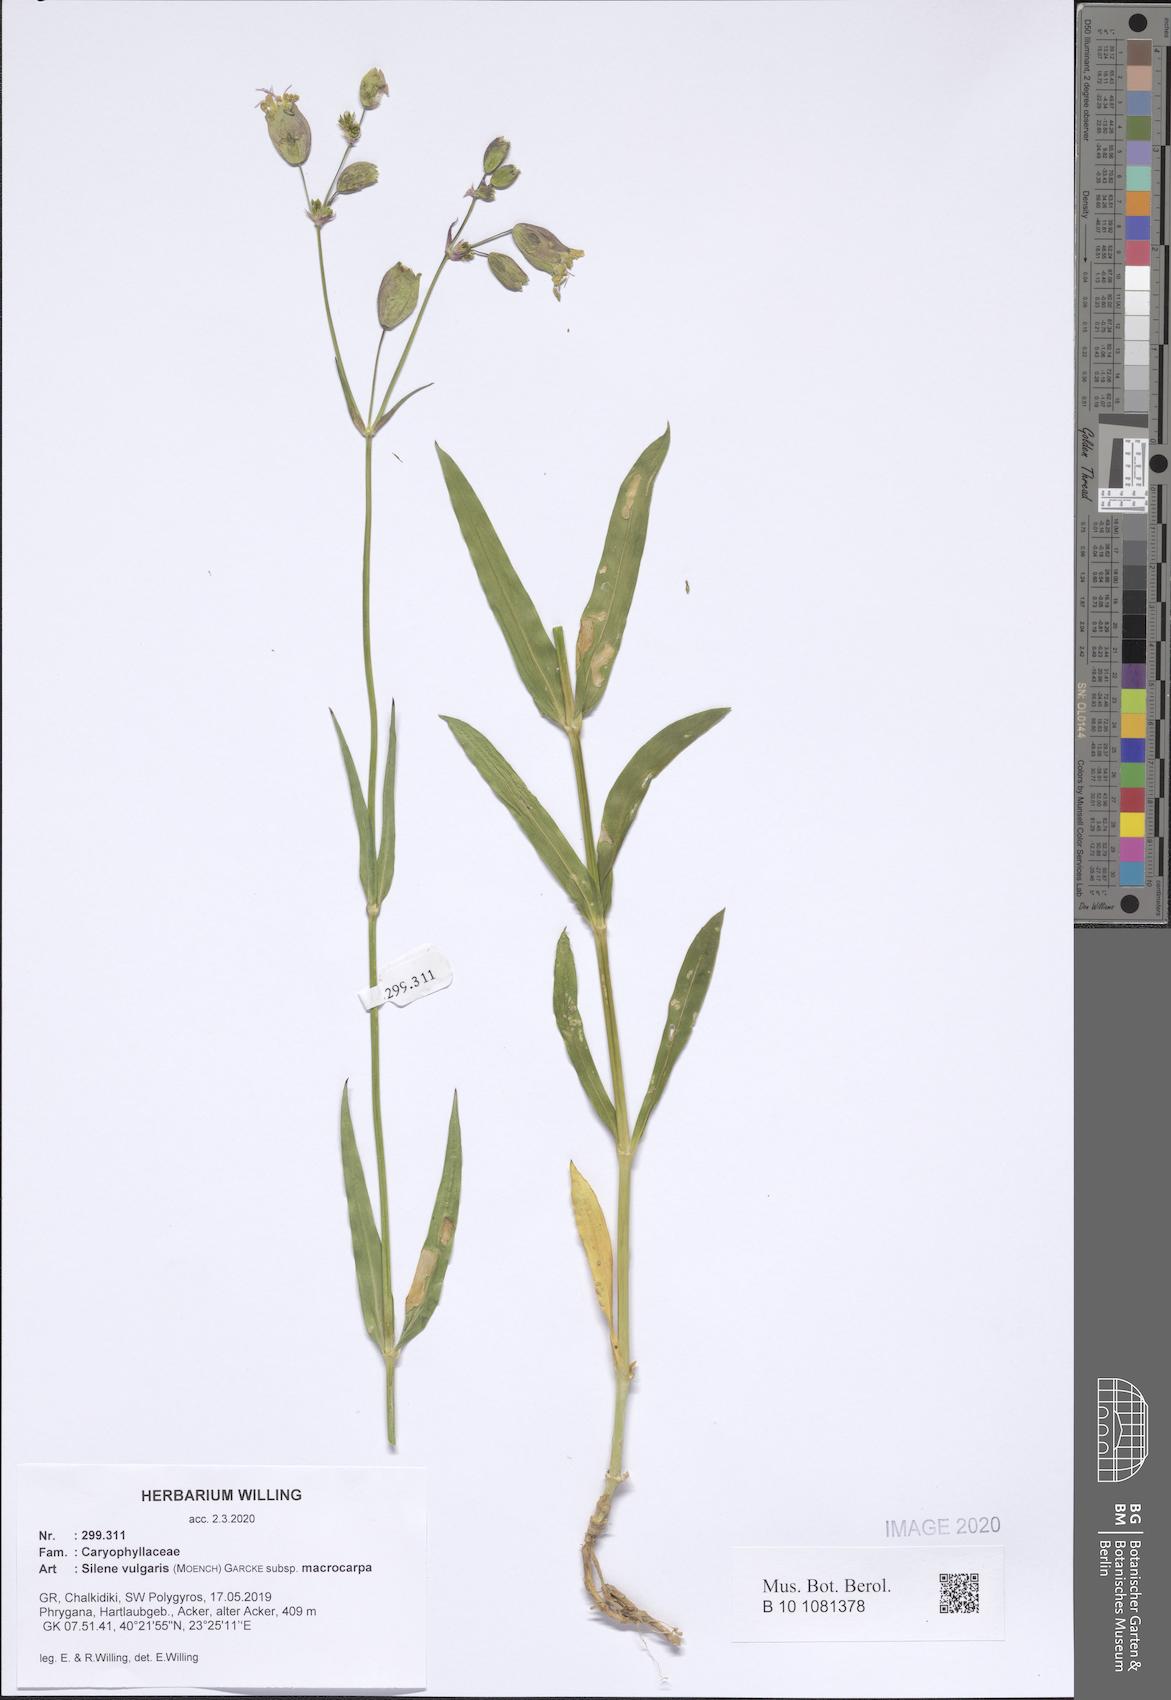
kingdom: Plantae
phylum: Tracheophyta
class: Magnoliopsida
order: Caryophyllales
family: Caryophyllaceae
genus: Silene
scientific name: Silene vulgaris
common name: Bladder campion
